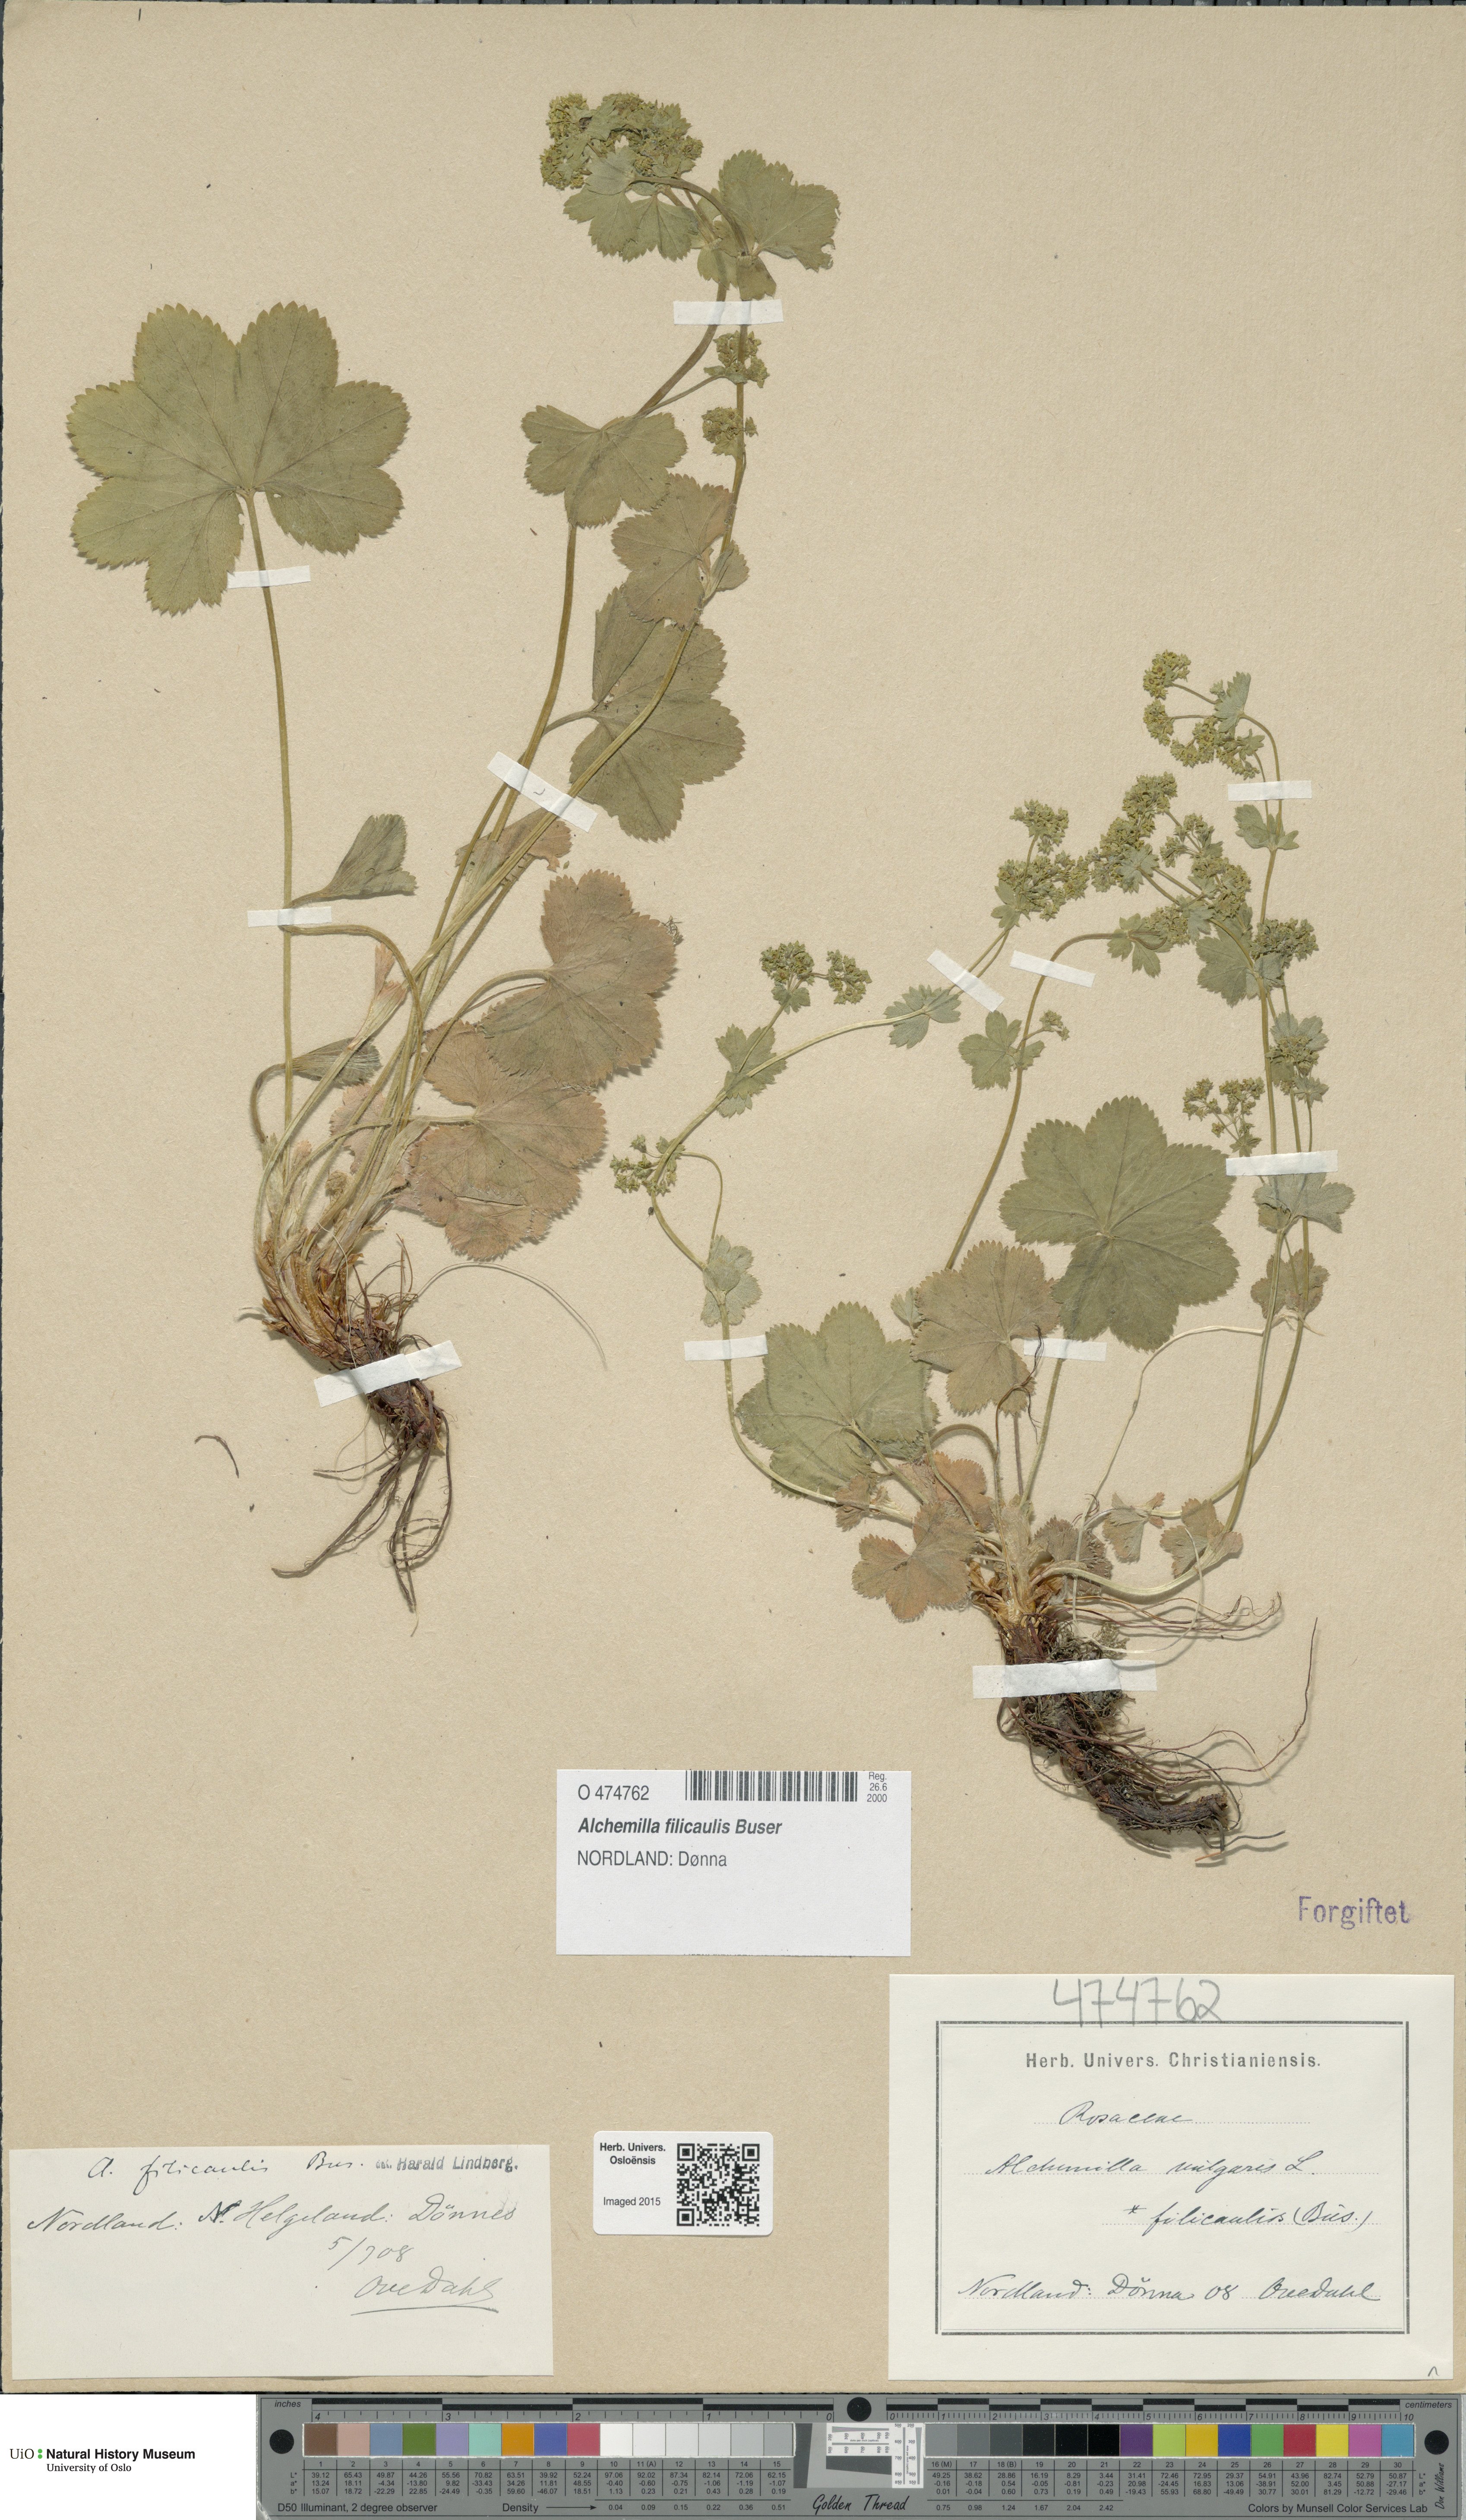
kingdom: Plantae
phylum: Tracheophyta
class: Magnoliopsida
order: Rosales
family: Rosaceae
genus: Alchemilla
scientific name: Alchemilla filicaulis
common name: Hairy lady's-mantle
